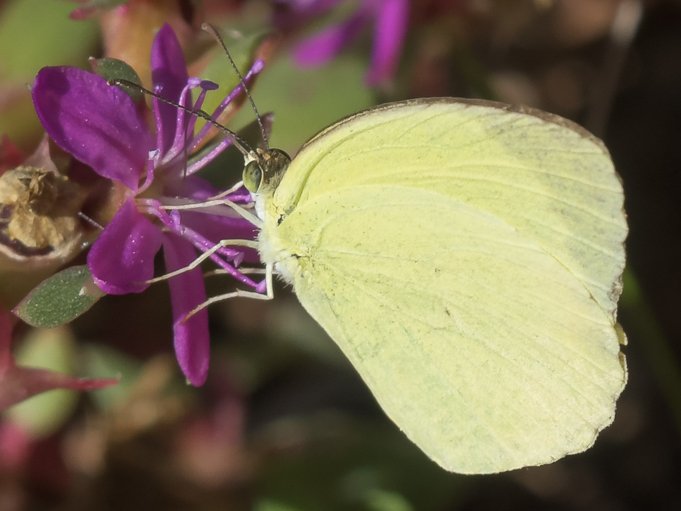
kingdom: Animalia
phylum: Arthropoda
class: Insecta
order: Lepidoptera
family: Pieridae
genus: Pyrisitia
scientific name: Pyrisitia nise
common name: Mimosa Yellow
